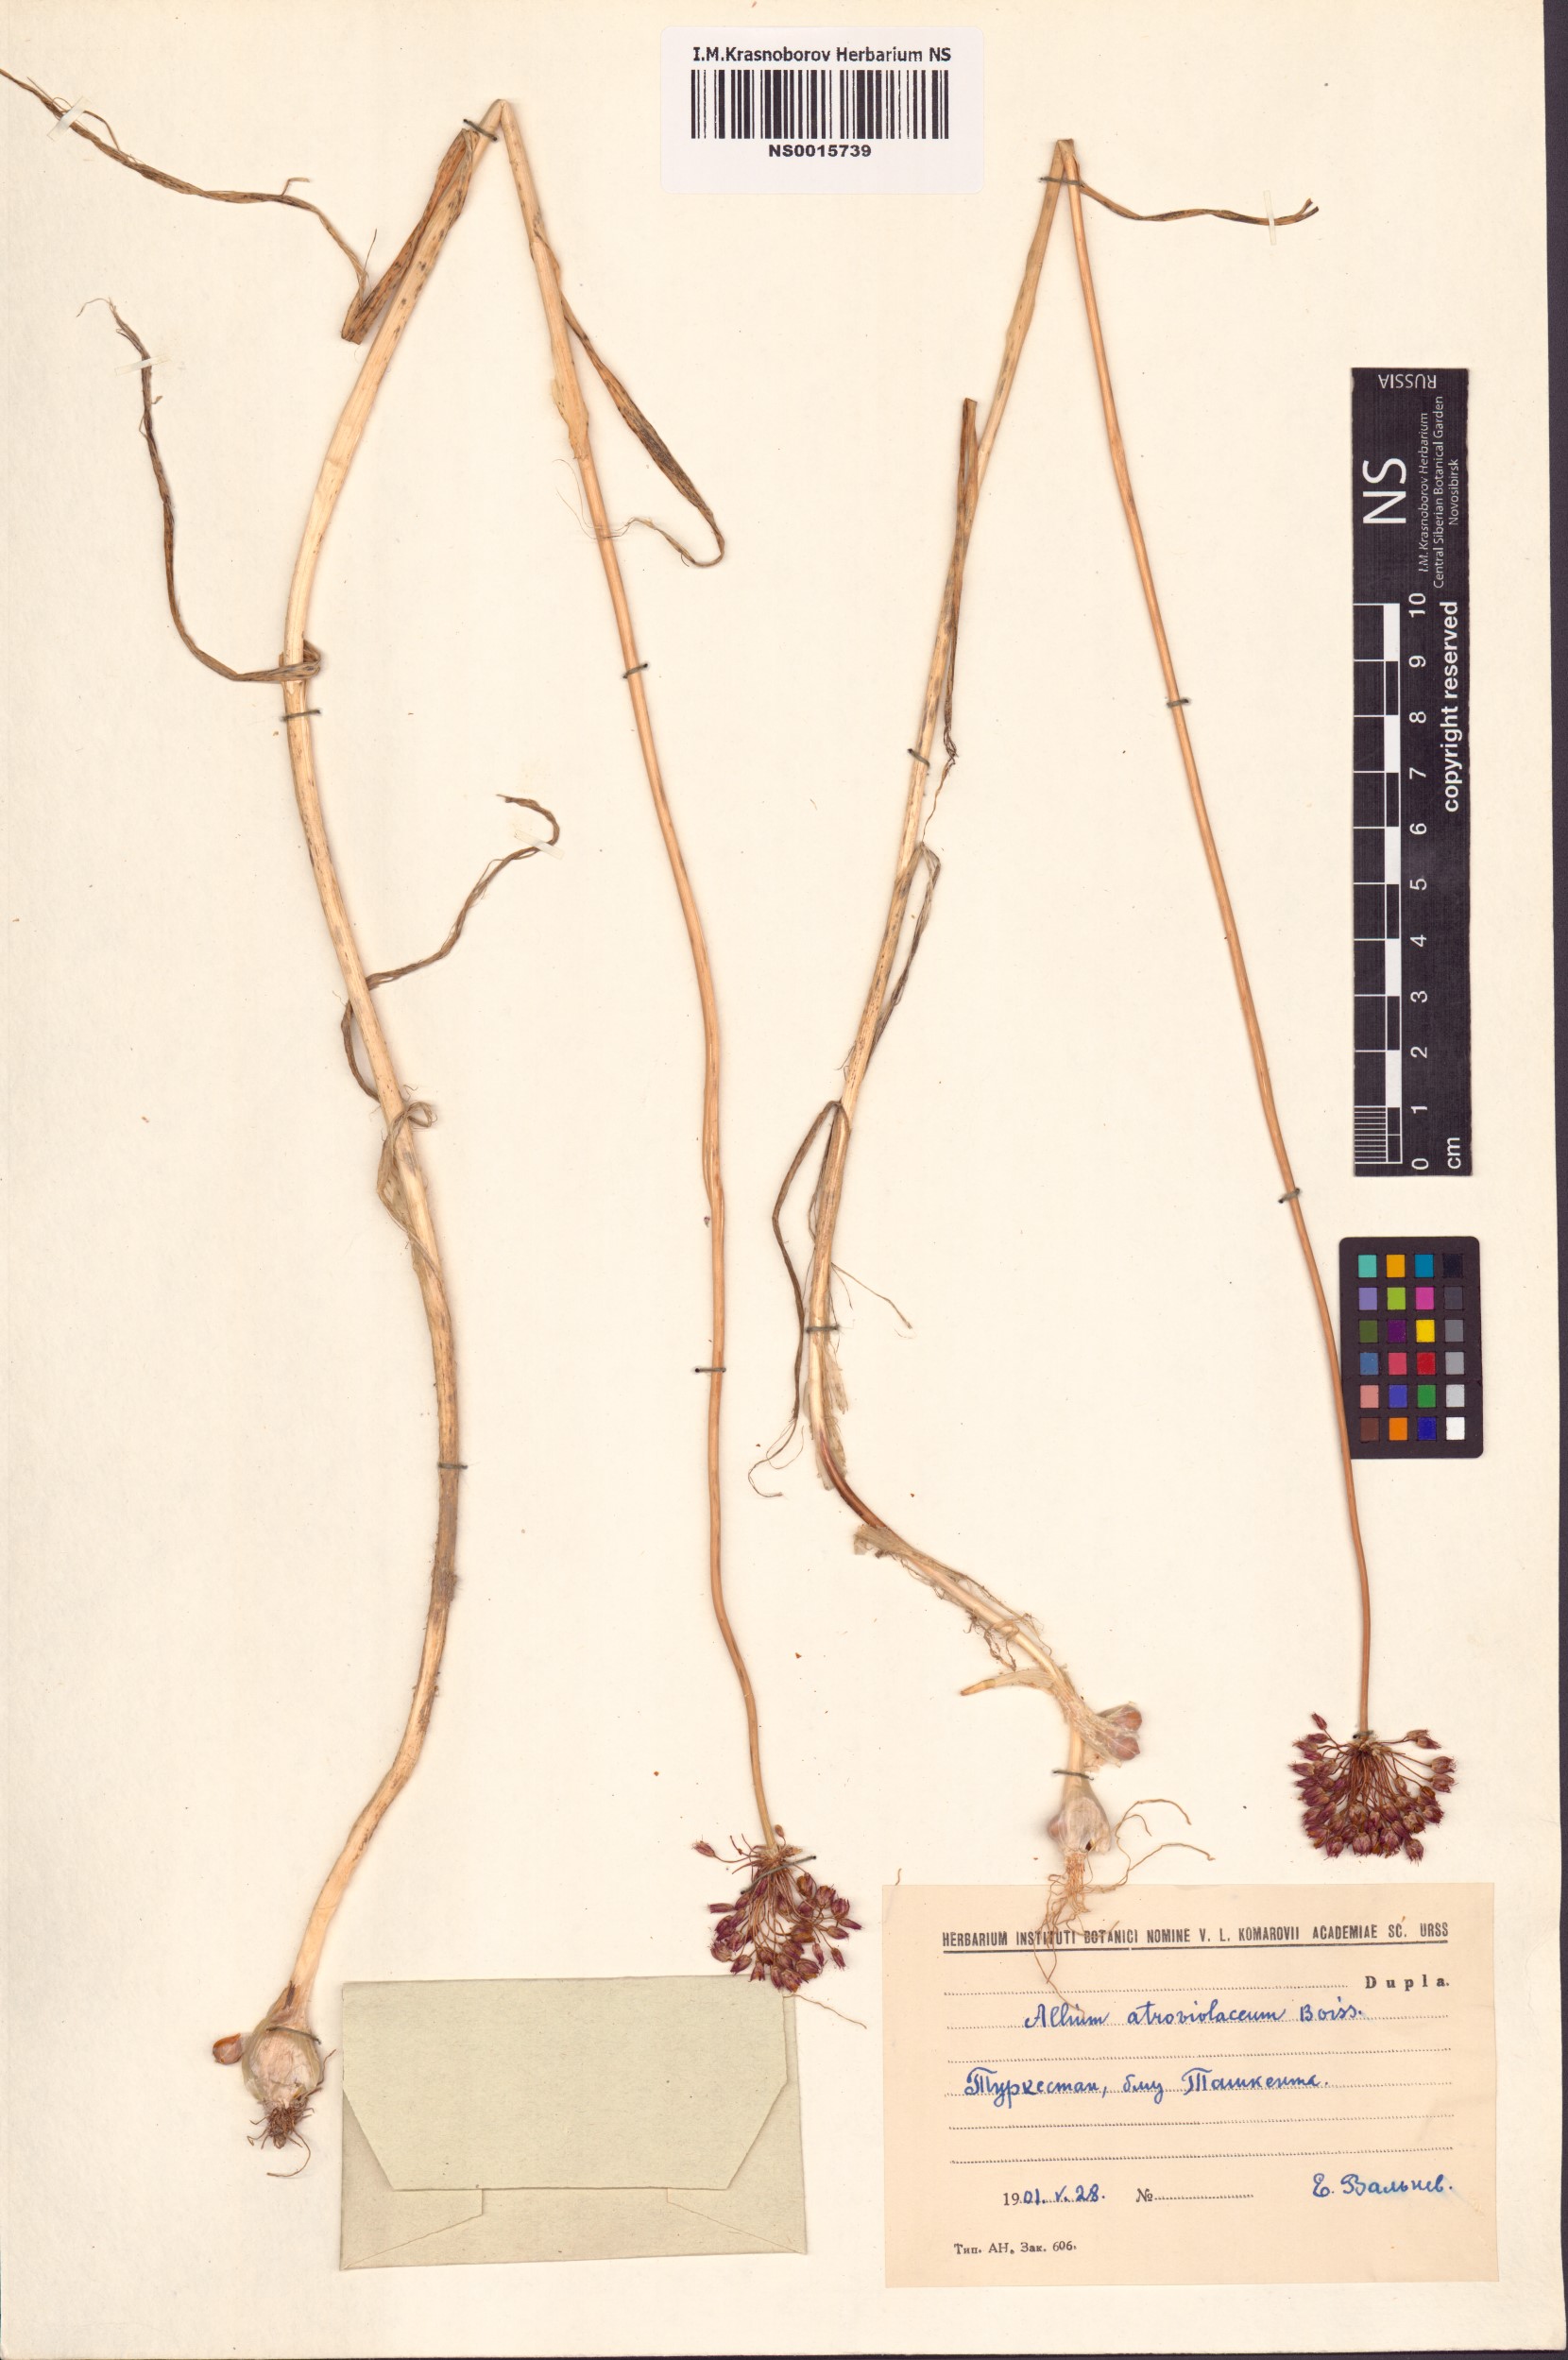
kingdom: Plantae
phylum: Tracheophyta
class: Liliopsida
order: Asparagales
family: Amaryllidaceae
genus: Allium
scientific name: Allium atroviolaceum
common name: Broadleaf wild leek
